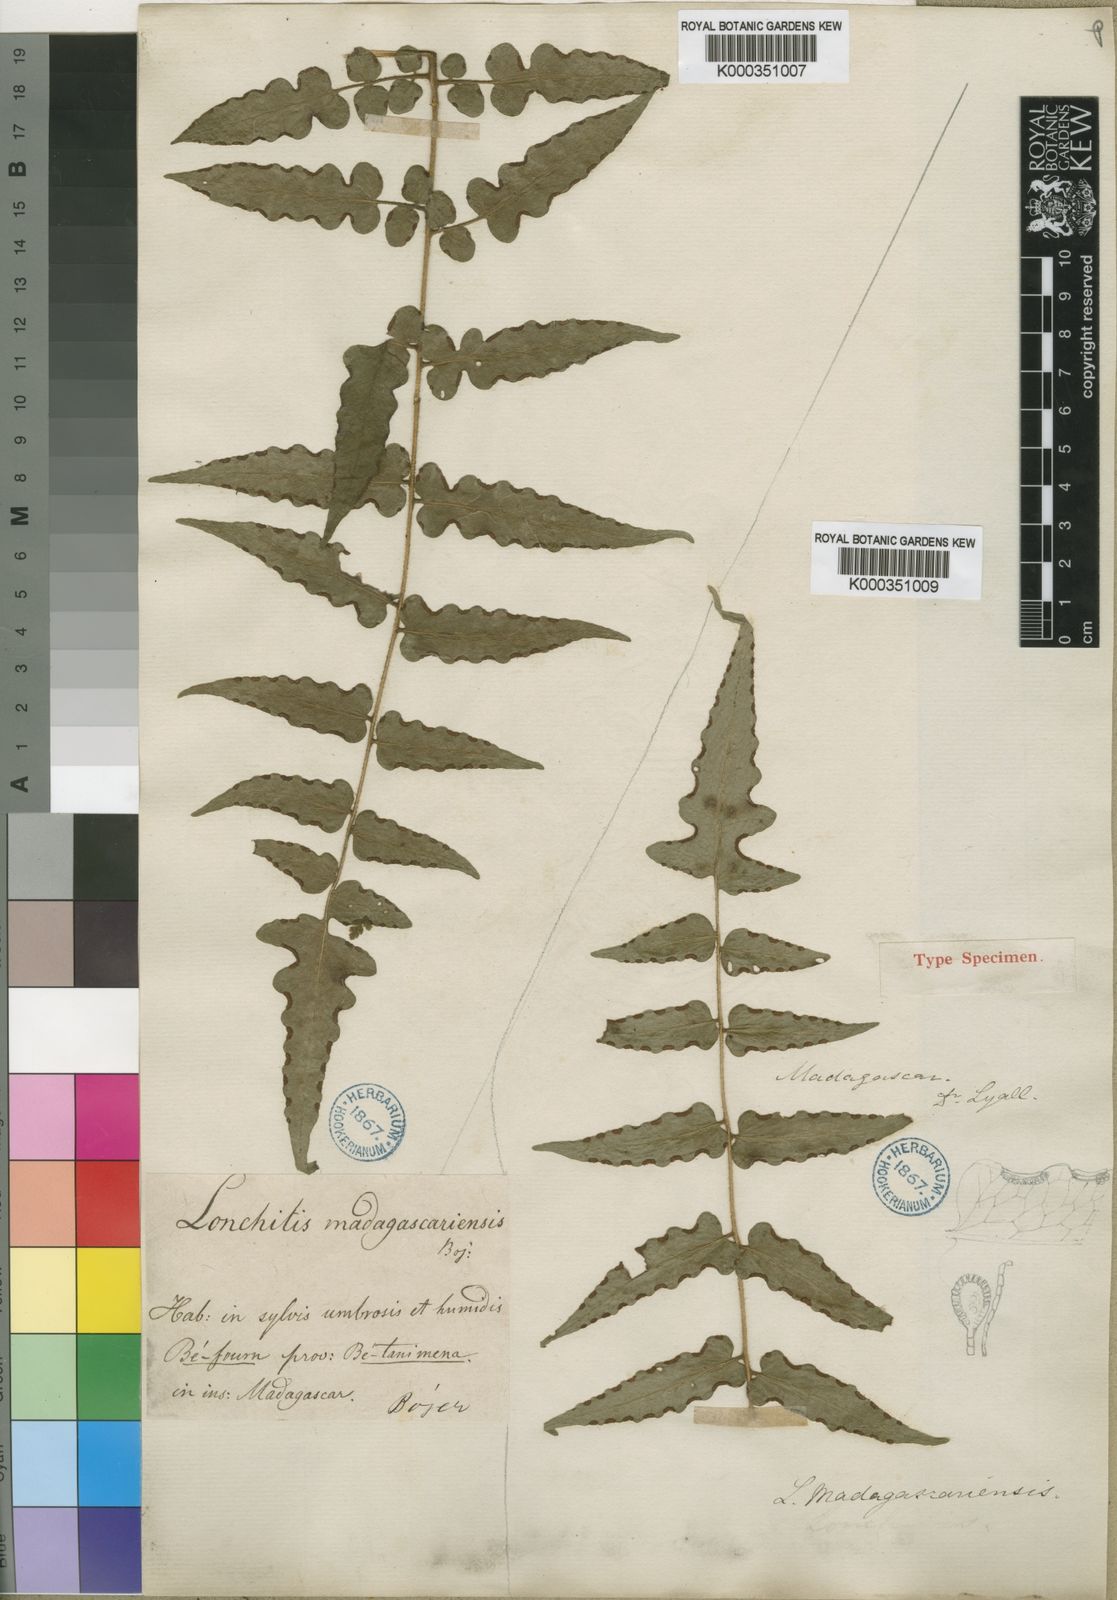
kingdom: Plantae
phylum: Tracheophyta
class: Polypodiopsida
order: Polypodiales
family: Dennstaedtiaceae
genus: Blotiella
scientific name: Blotiella madagascariensis
